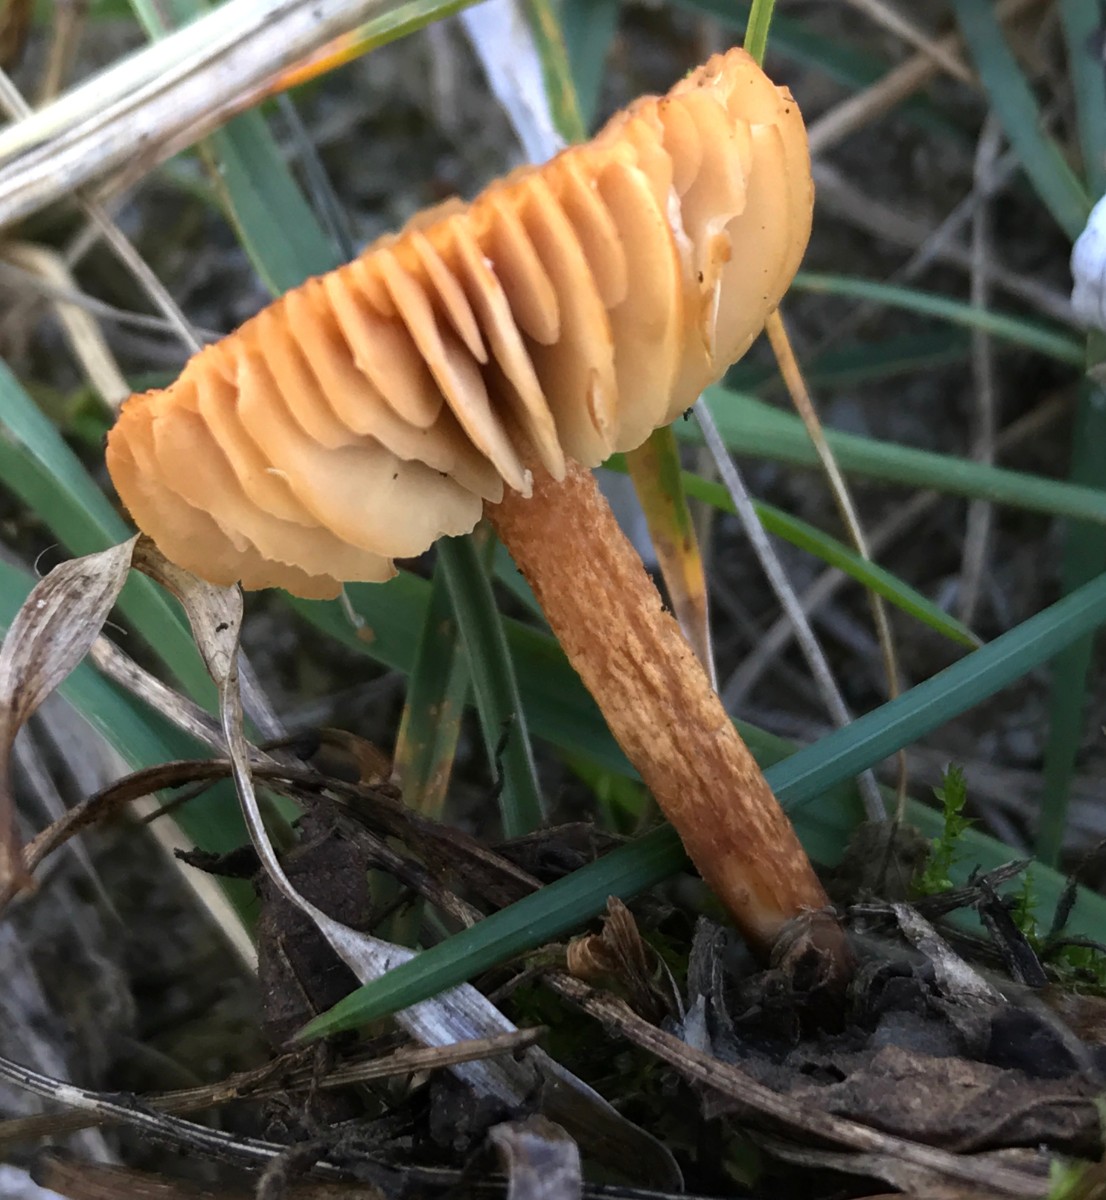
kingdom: Fungi
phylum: Basidiomycota
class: Agaricomycetes
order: Agaricales
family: Marasmiaceae
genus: Marasmius
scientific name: Marasmius oreades
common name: elledans-bruskhat
